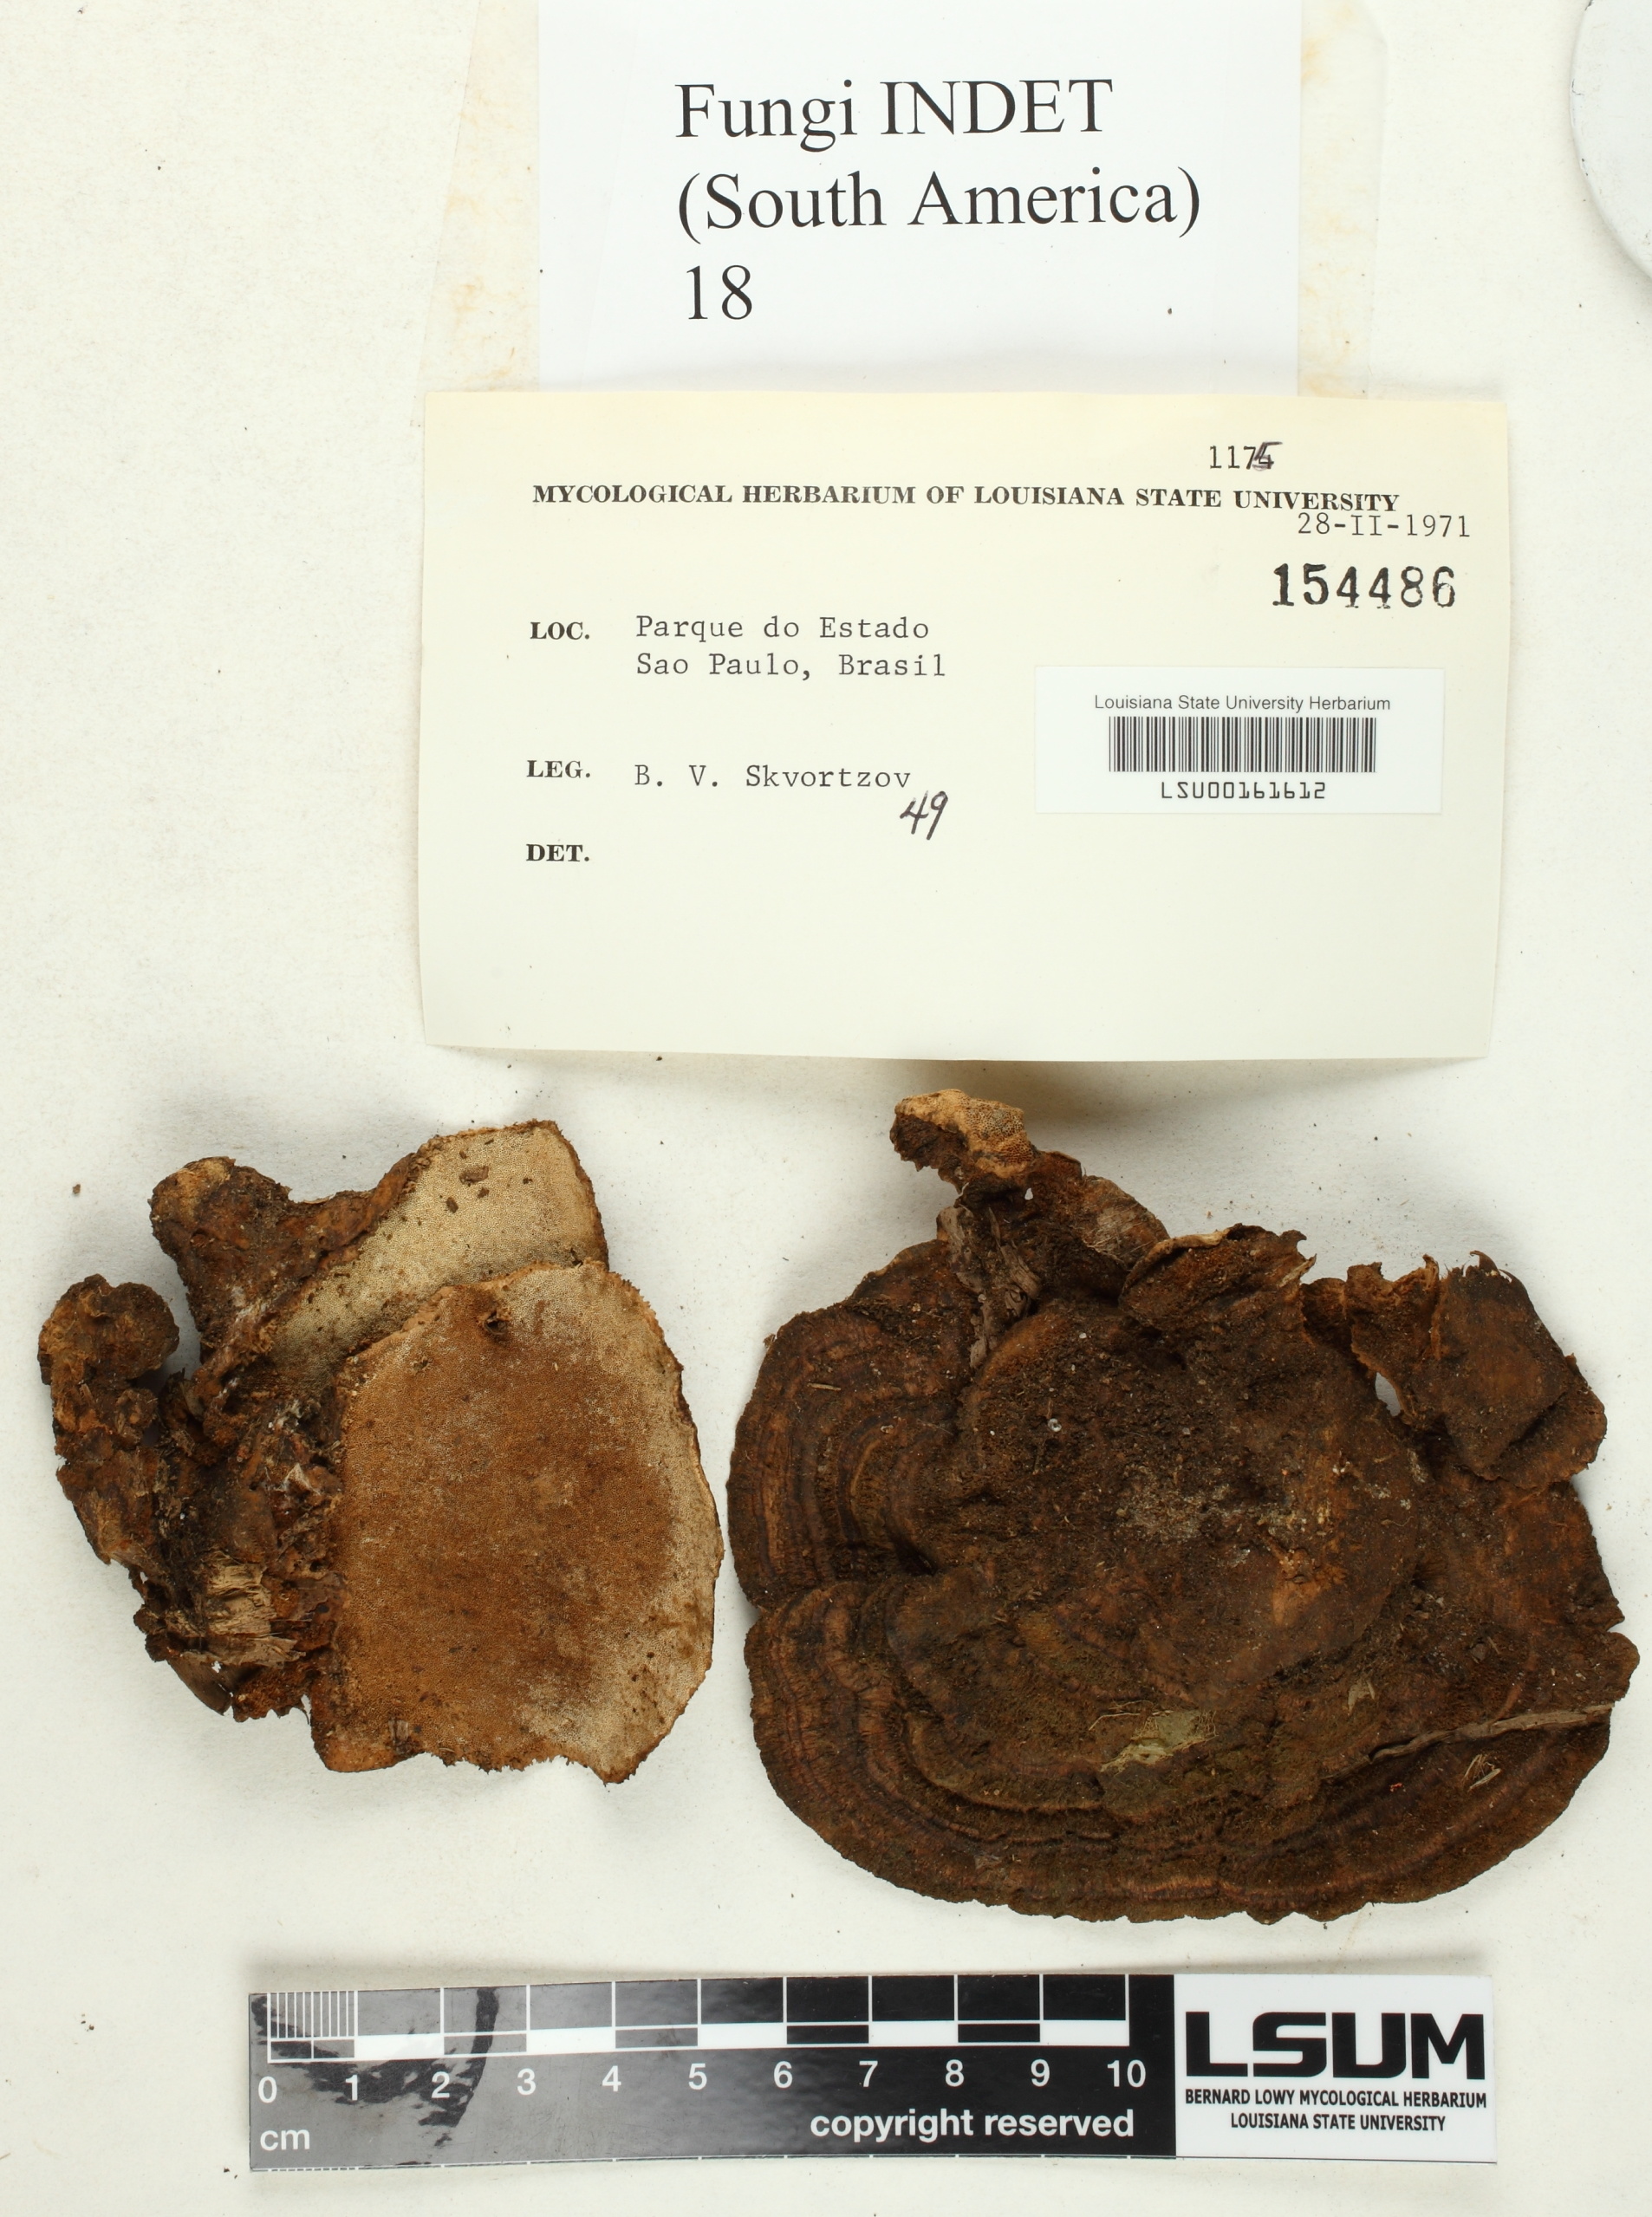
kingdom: Fungi
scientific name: Fungi
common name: Fungi
